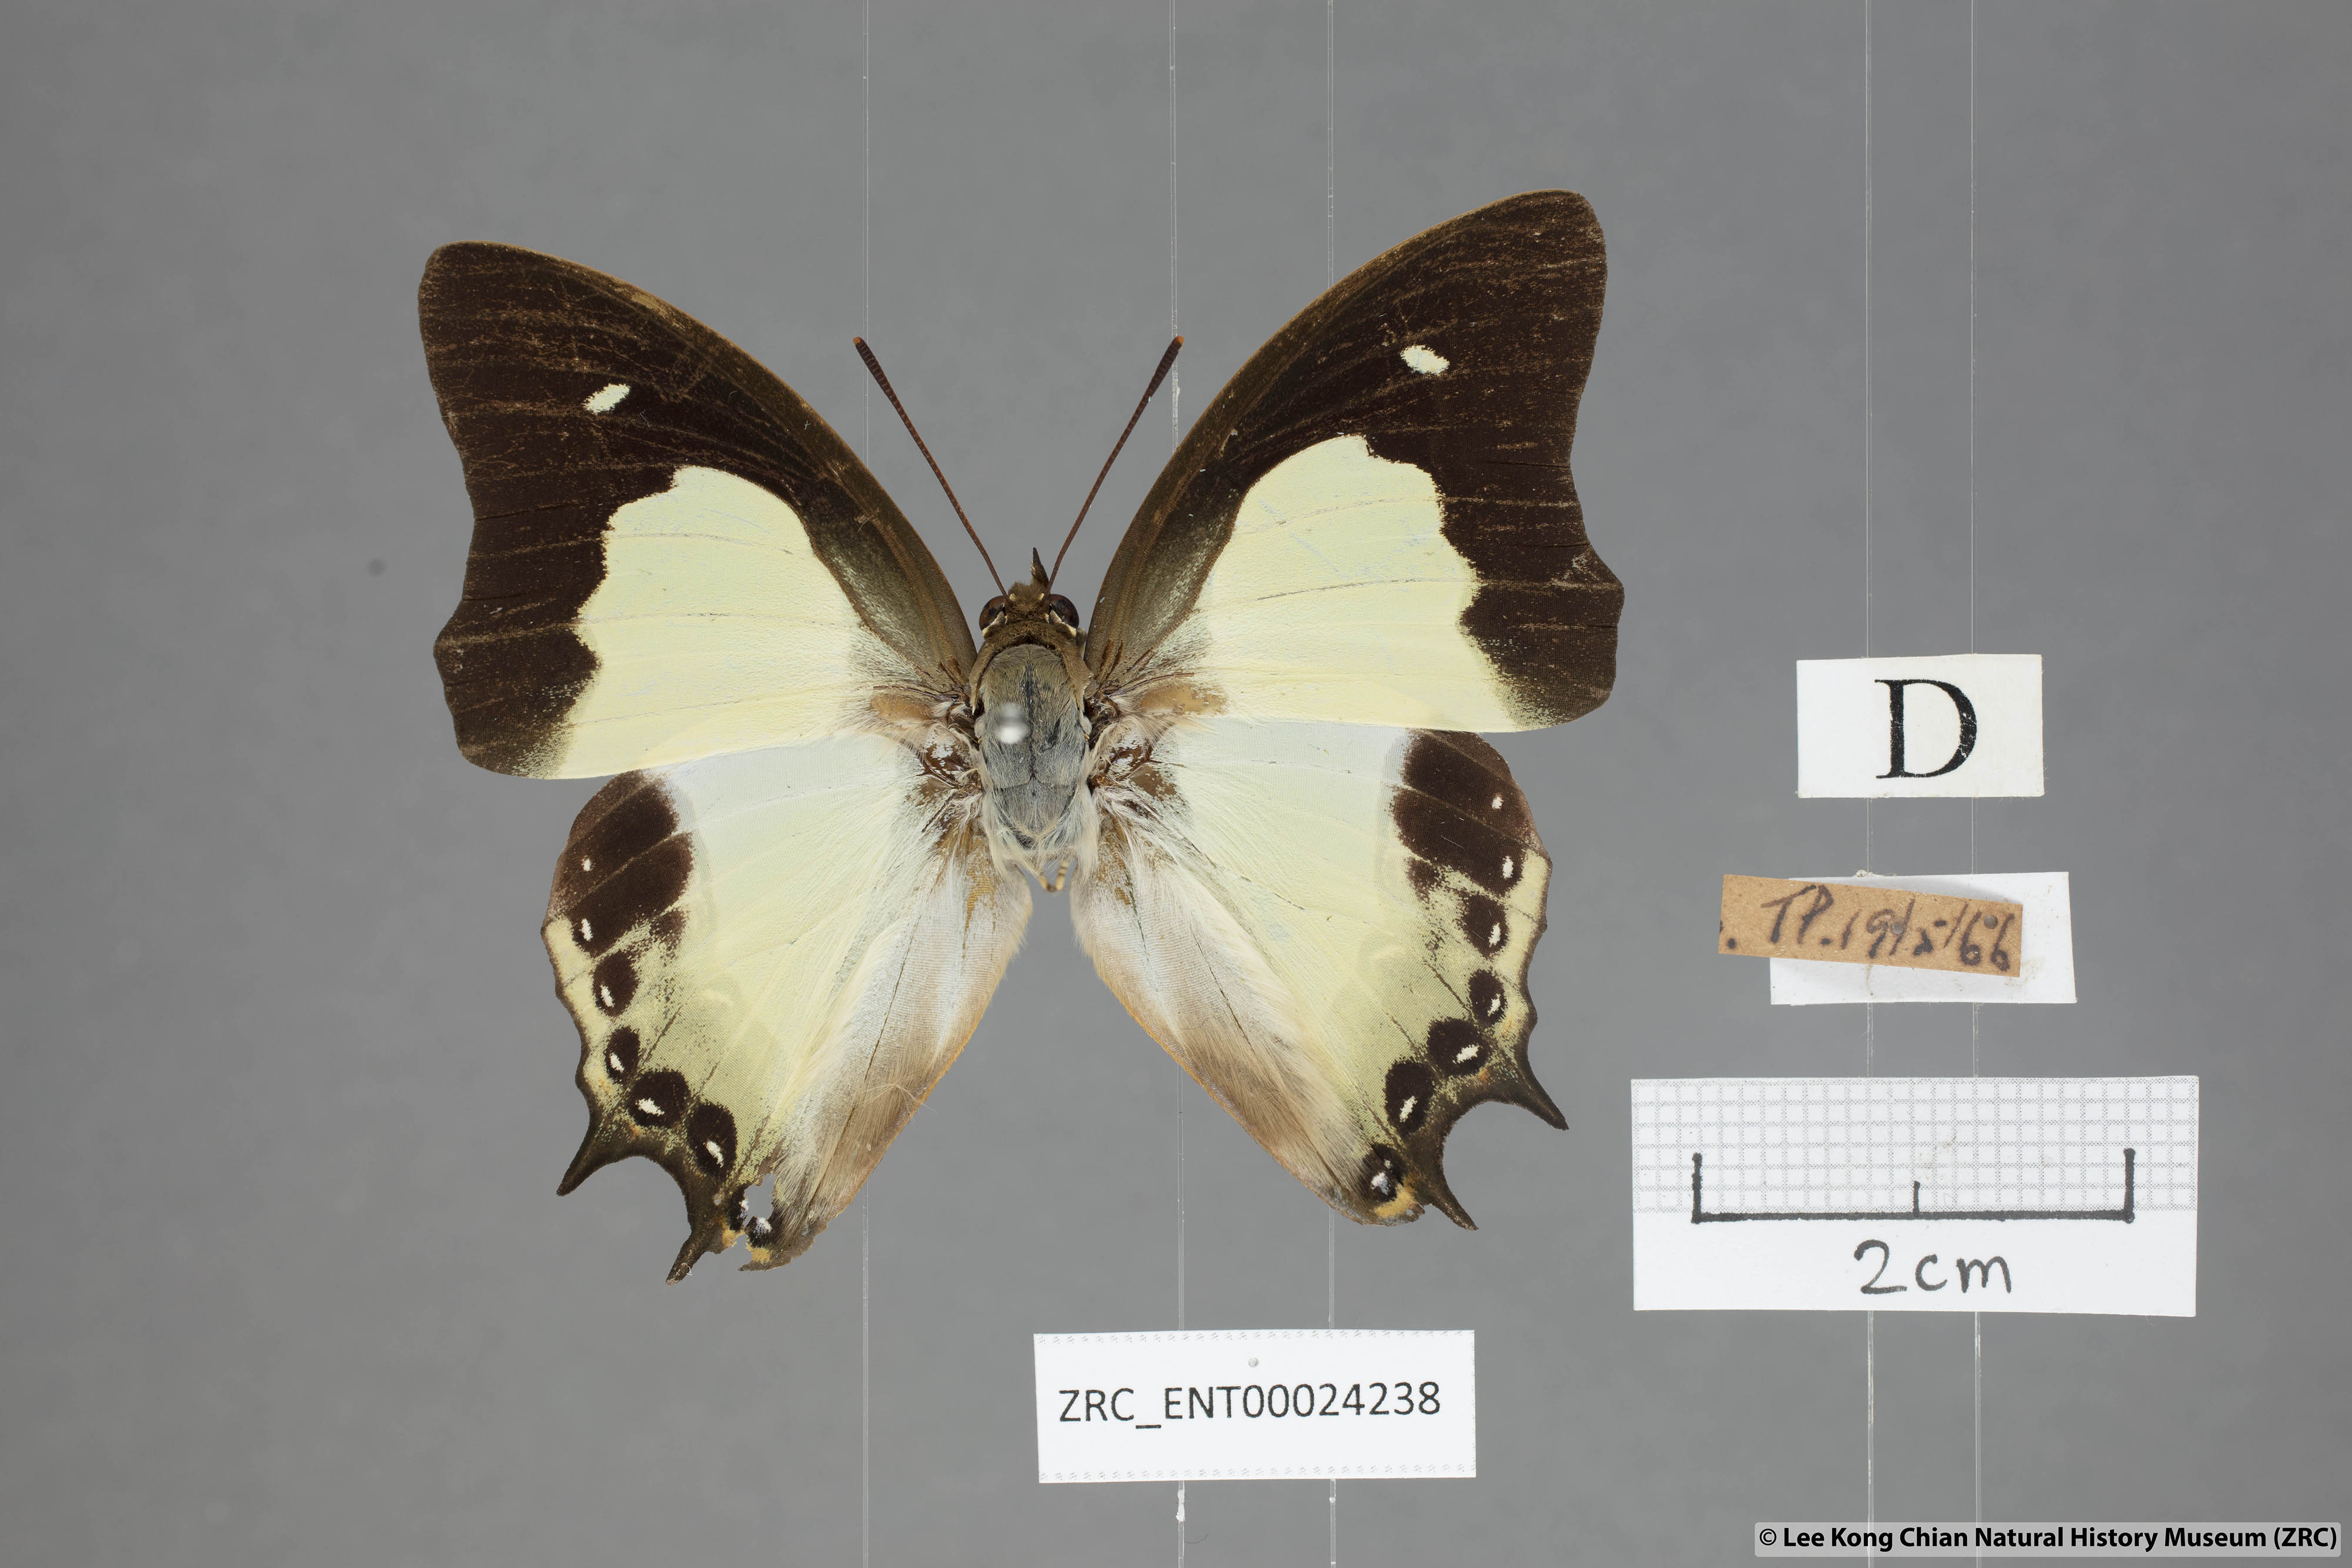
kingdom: Animalia
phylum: Arthropoda
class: Insecta
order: Lepidoptera
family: Nymphalidae
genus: Polyura
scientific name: Polyura moori
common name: Malayan nawab
